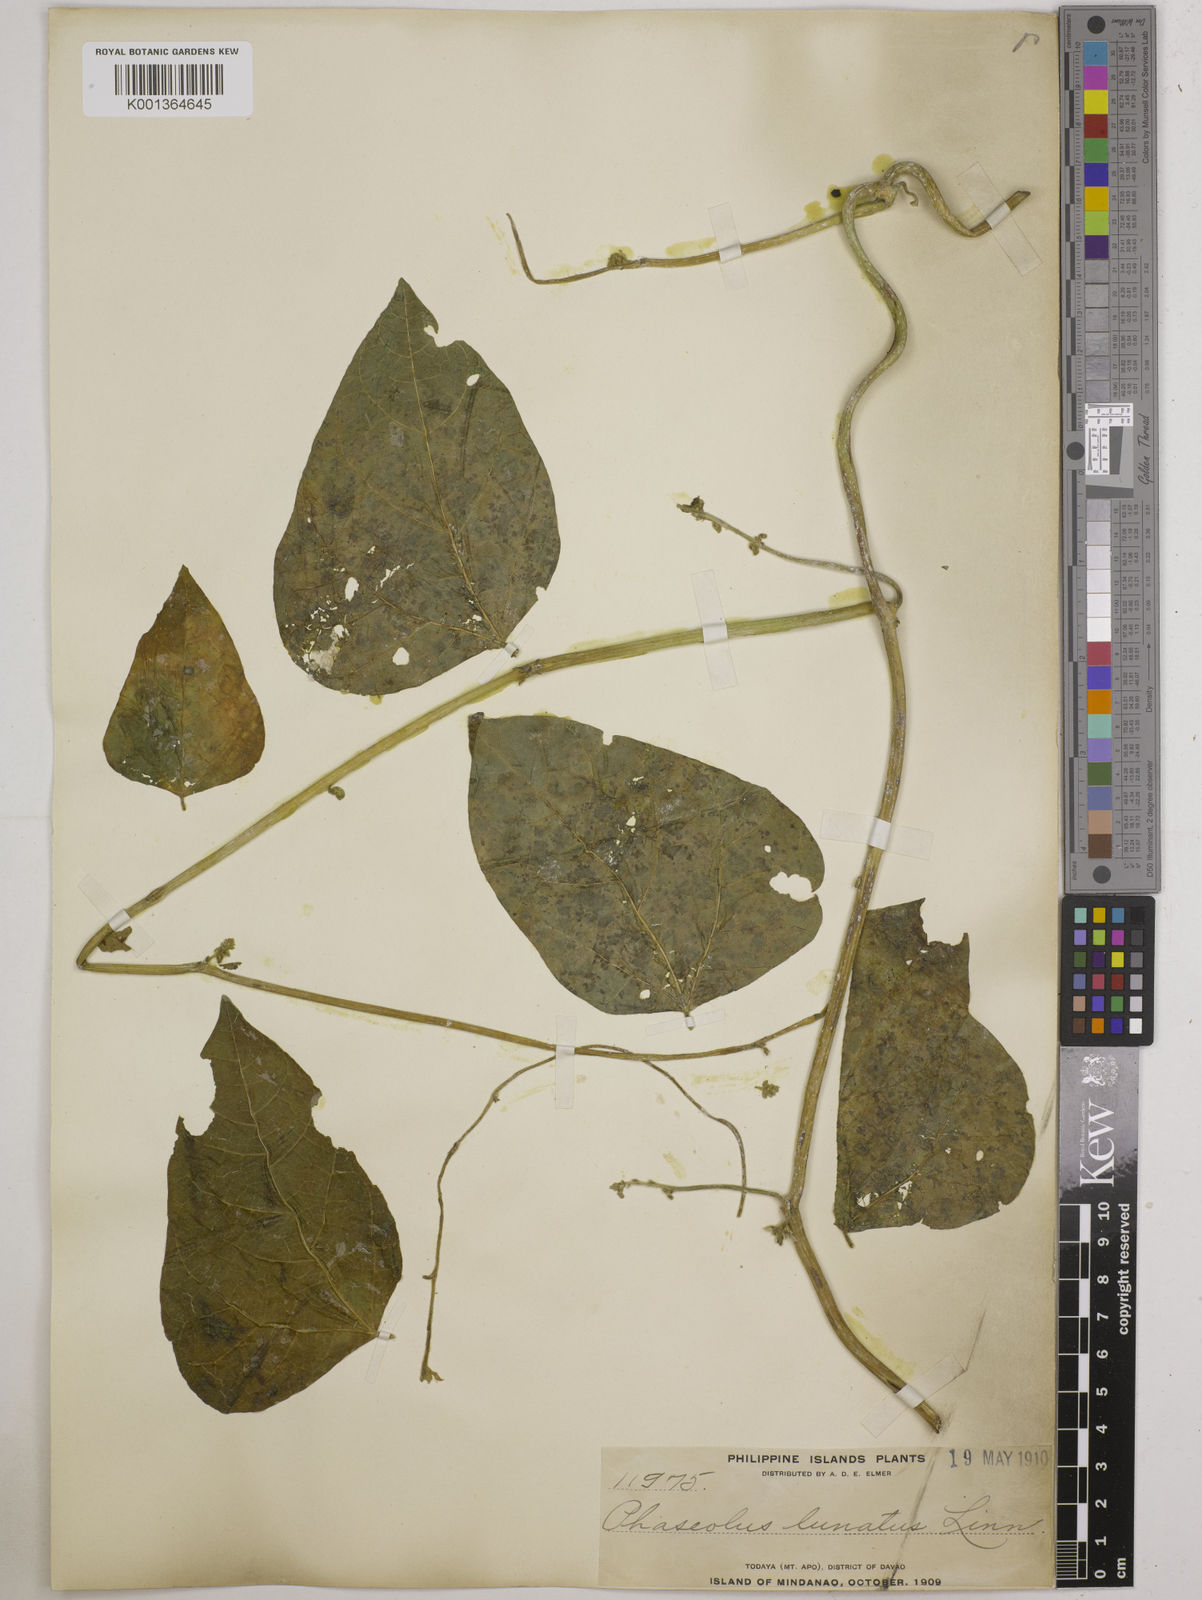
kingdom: Plantae
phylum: Tracheophyta
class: Magnoliopsida
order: Fabales
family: Fabaceae
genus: Phaseolus
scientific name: Phaseolus lunatus
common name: Sieva bean
